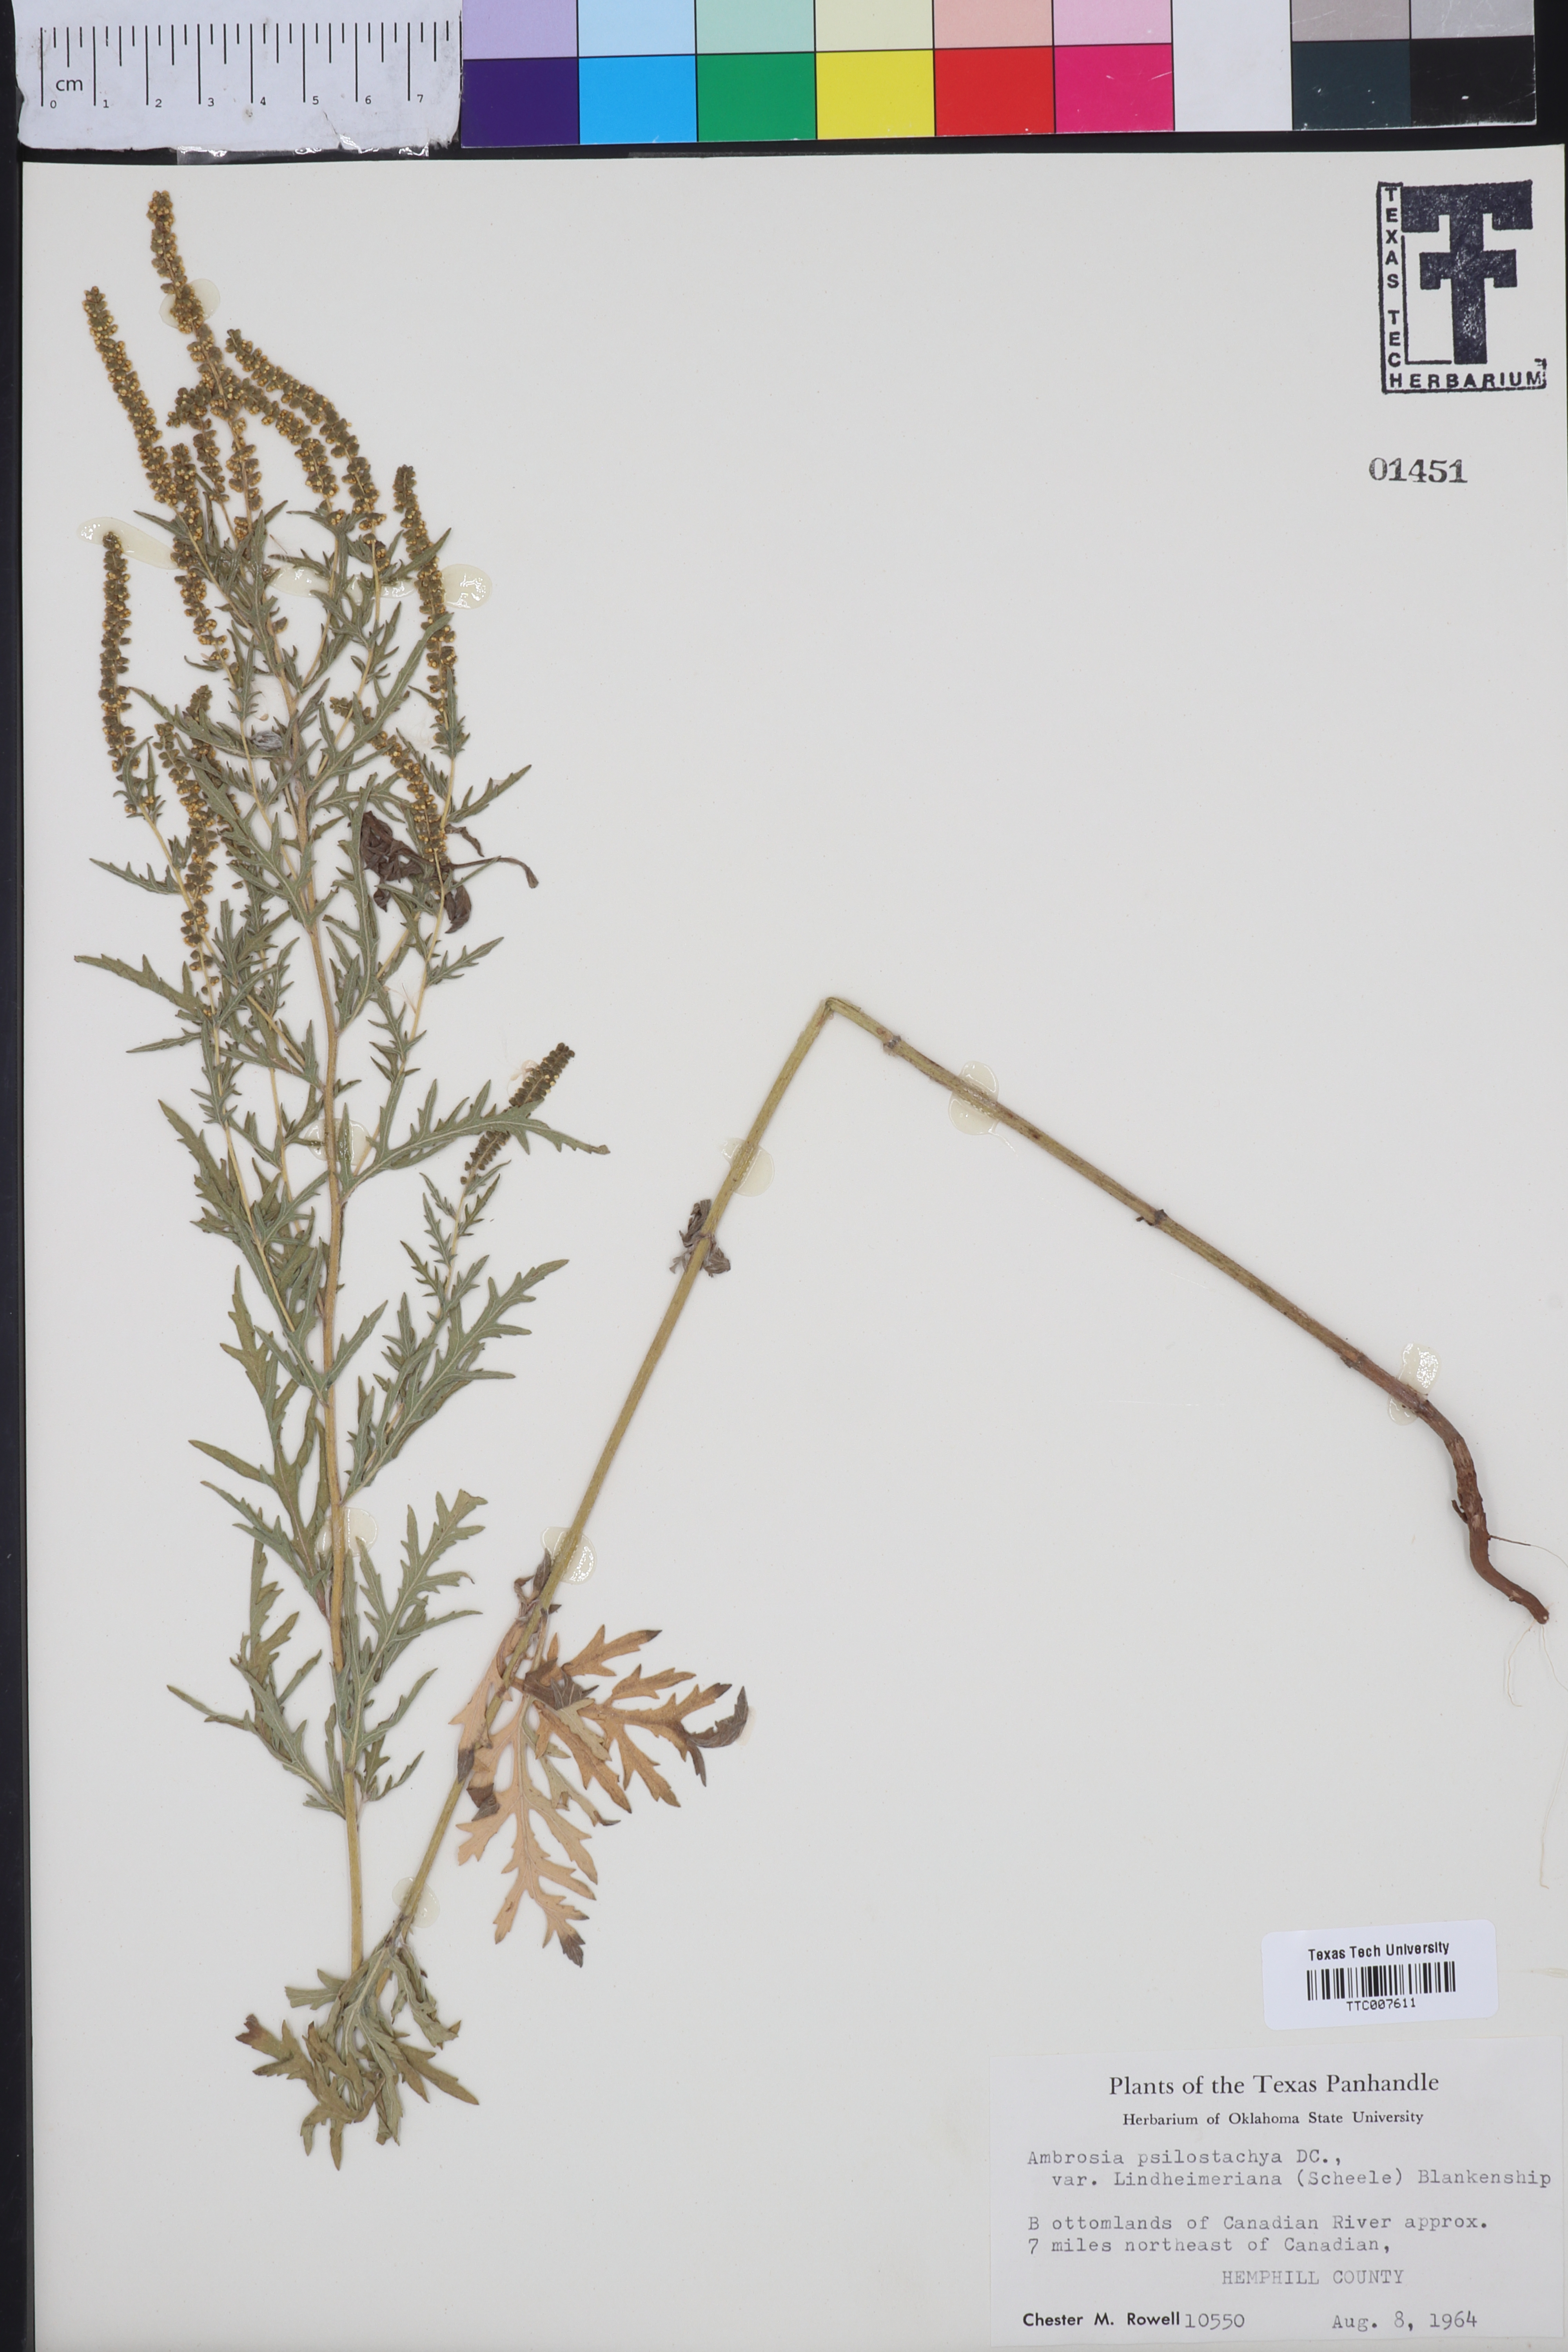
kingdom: Plantae
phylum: Tracheophyta
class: Magnoliopsida
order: Asterales
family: Asteraceae
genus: Ambrosia
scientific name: Ambrosia psilostachya
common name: Perennial ragweed
